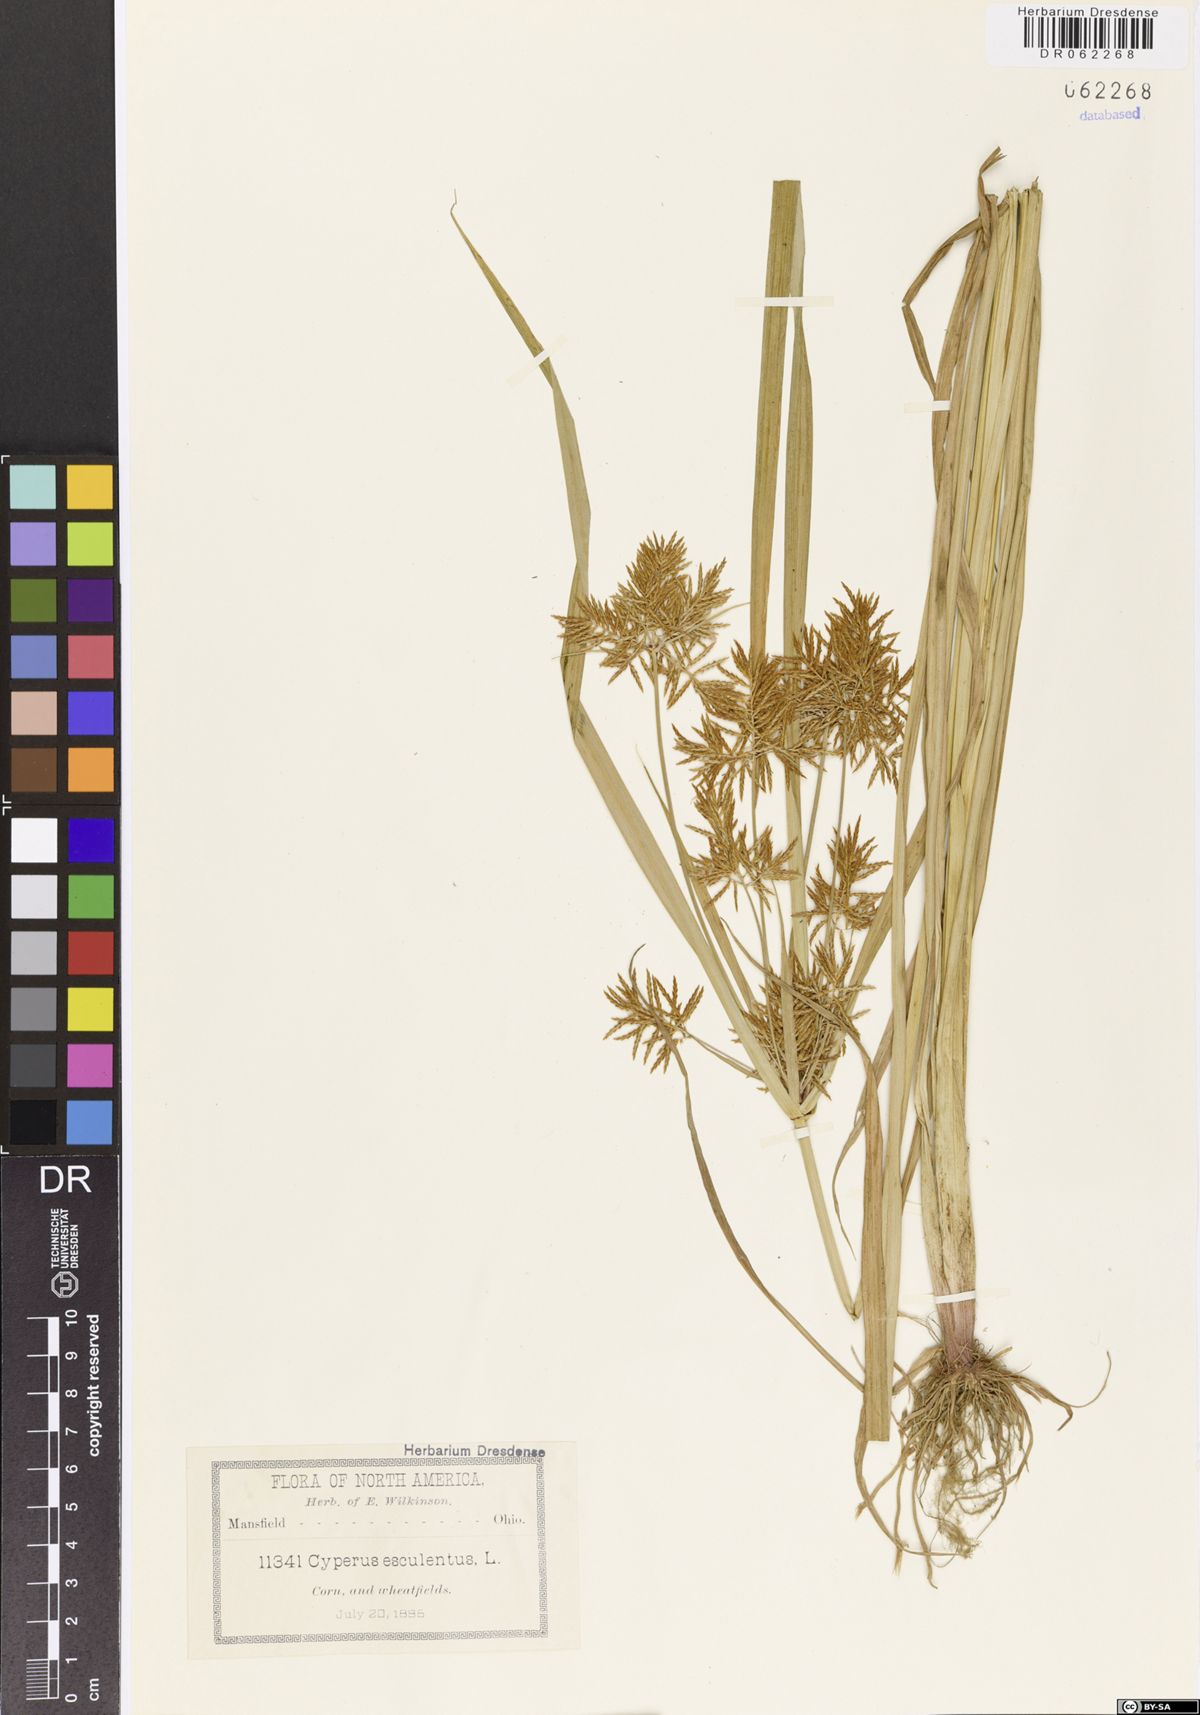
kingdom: Plantae
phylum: Tracheophyta
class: Liliopsida
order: Poales
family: Cyperaceae
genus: Cyperus
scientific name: Cyperus esculentus
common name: Yellow nutsedge
